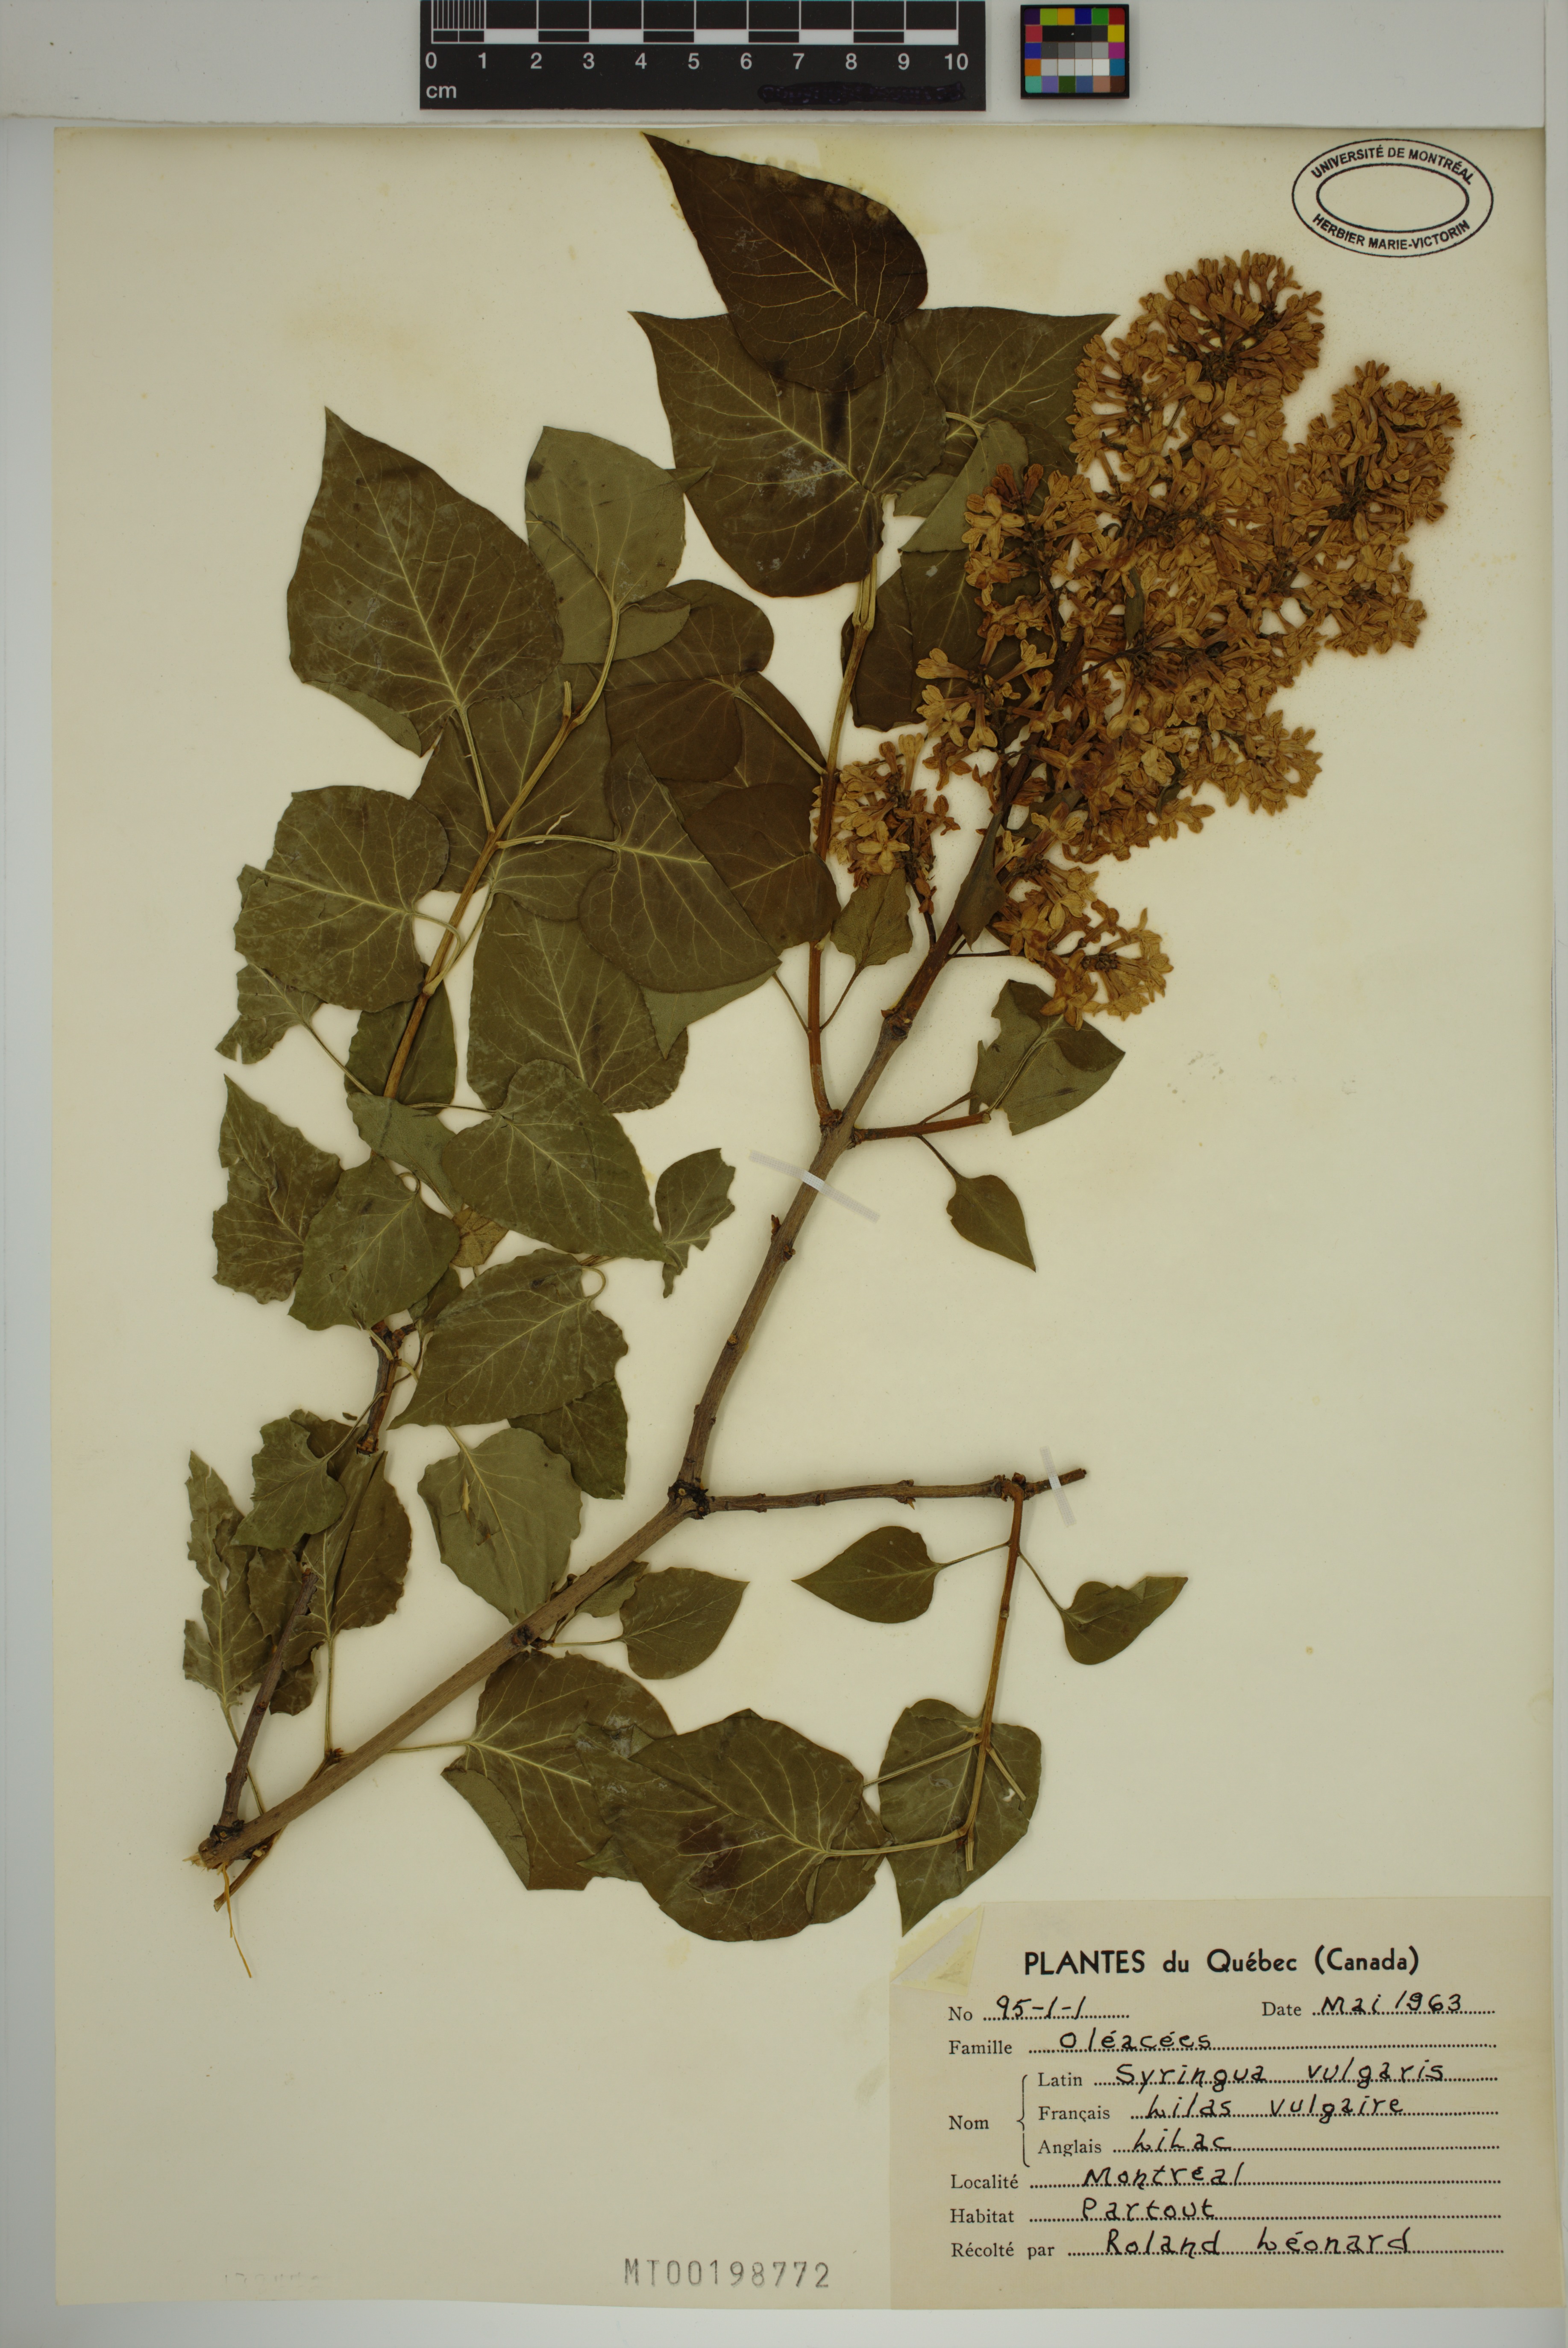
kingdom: Plantae
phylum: Tracheophyta
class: Magnoliopsida
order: Lamiales
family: Oleaceae
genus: Syringa
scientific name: Syringa vulgaris
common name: Common lilac
